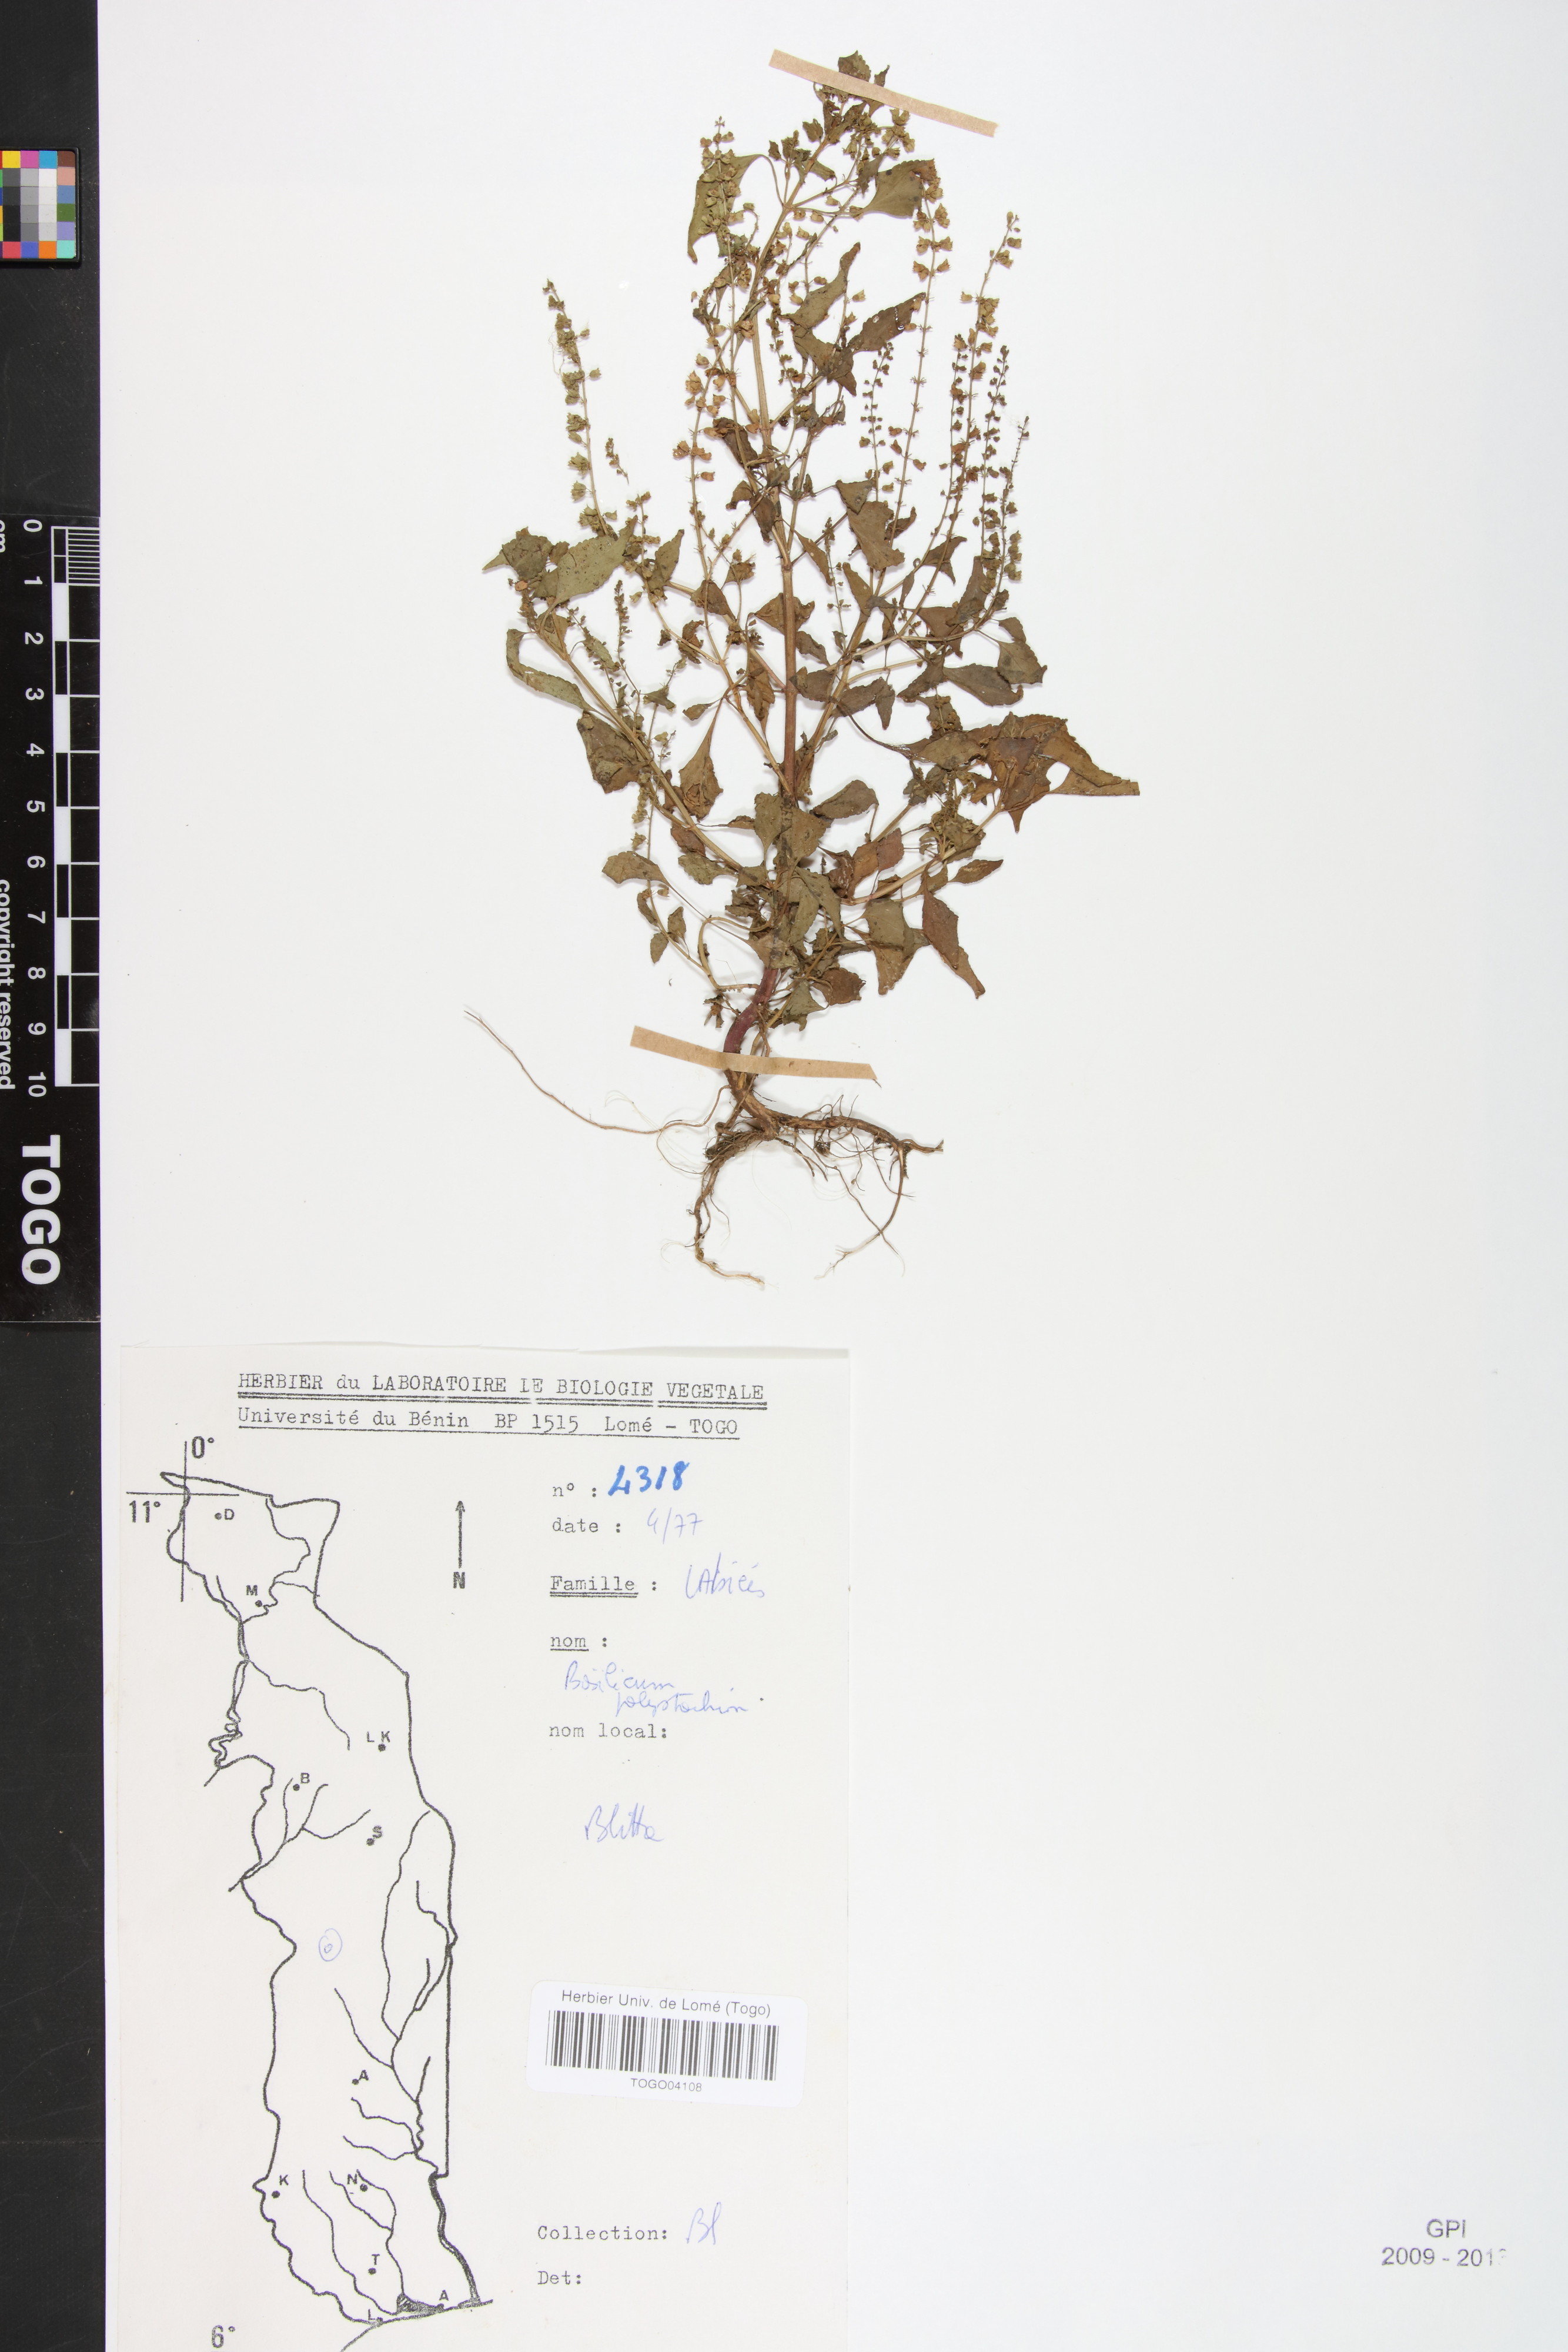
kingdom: Plantae
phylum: Tracheophyta
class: Magnoliopsida
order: Lamiales
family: Lamiaceae
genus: Basilicum
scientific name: Basilicum polystachyon
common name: Musk-basil
